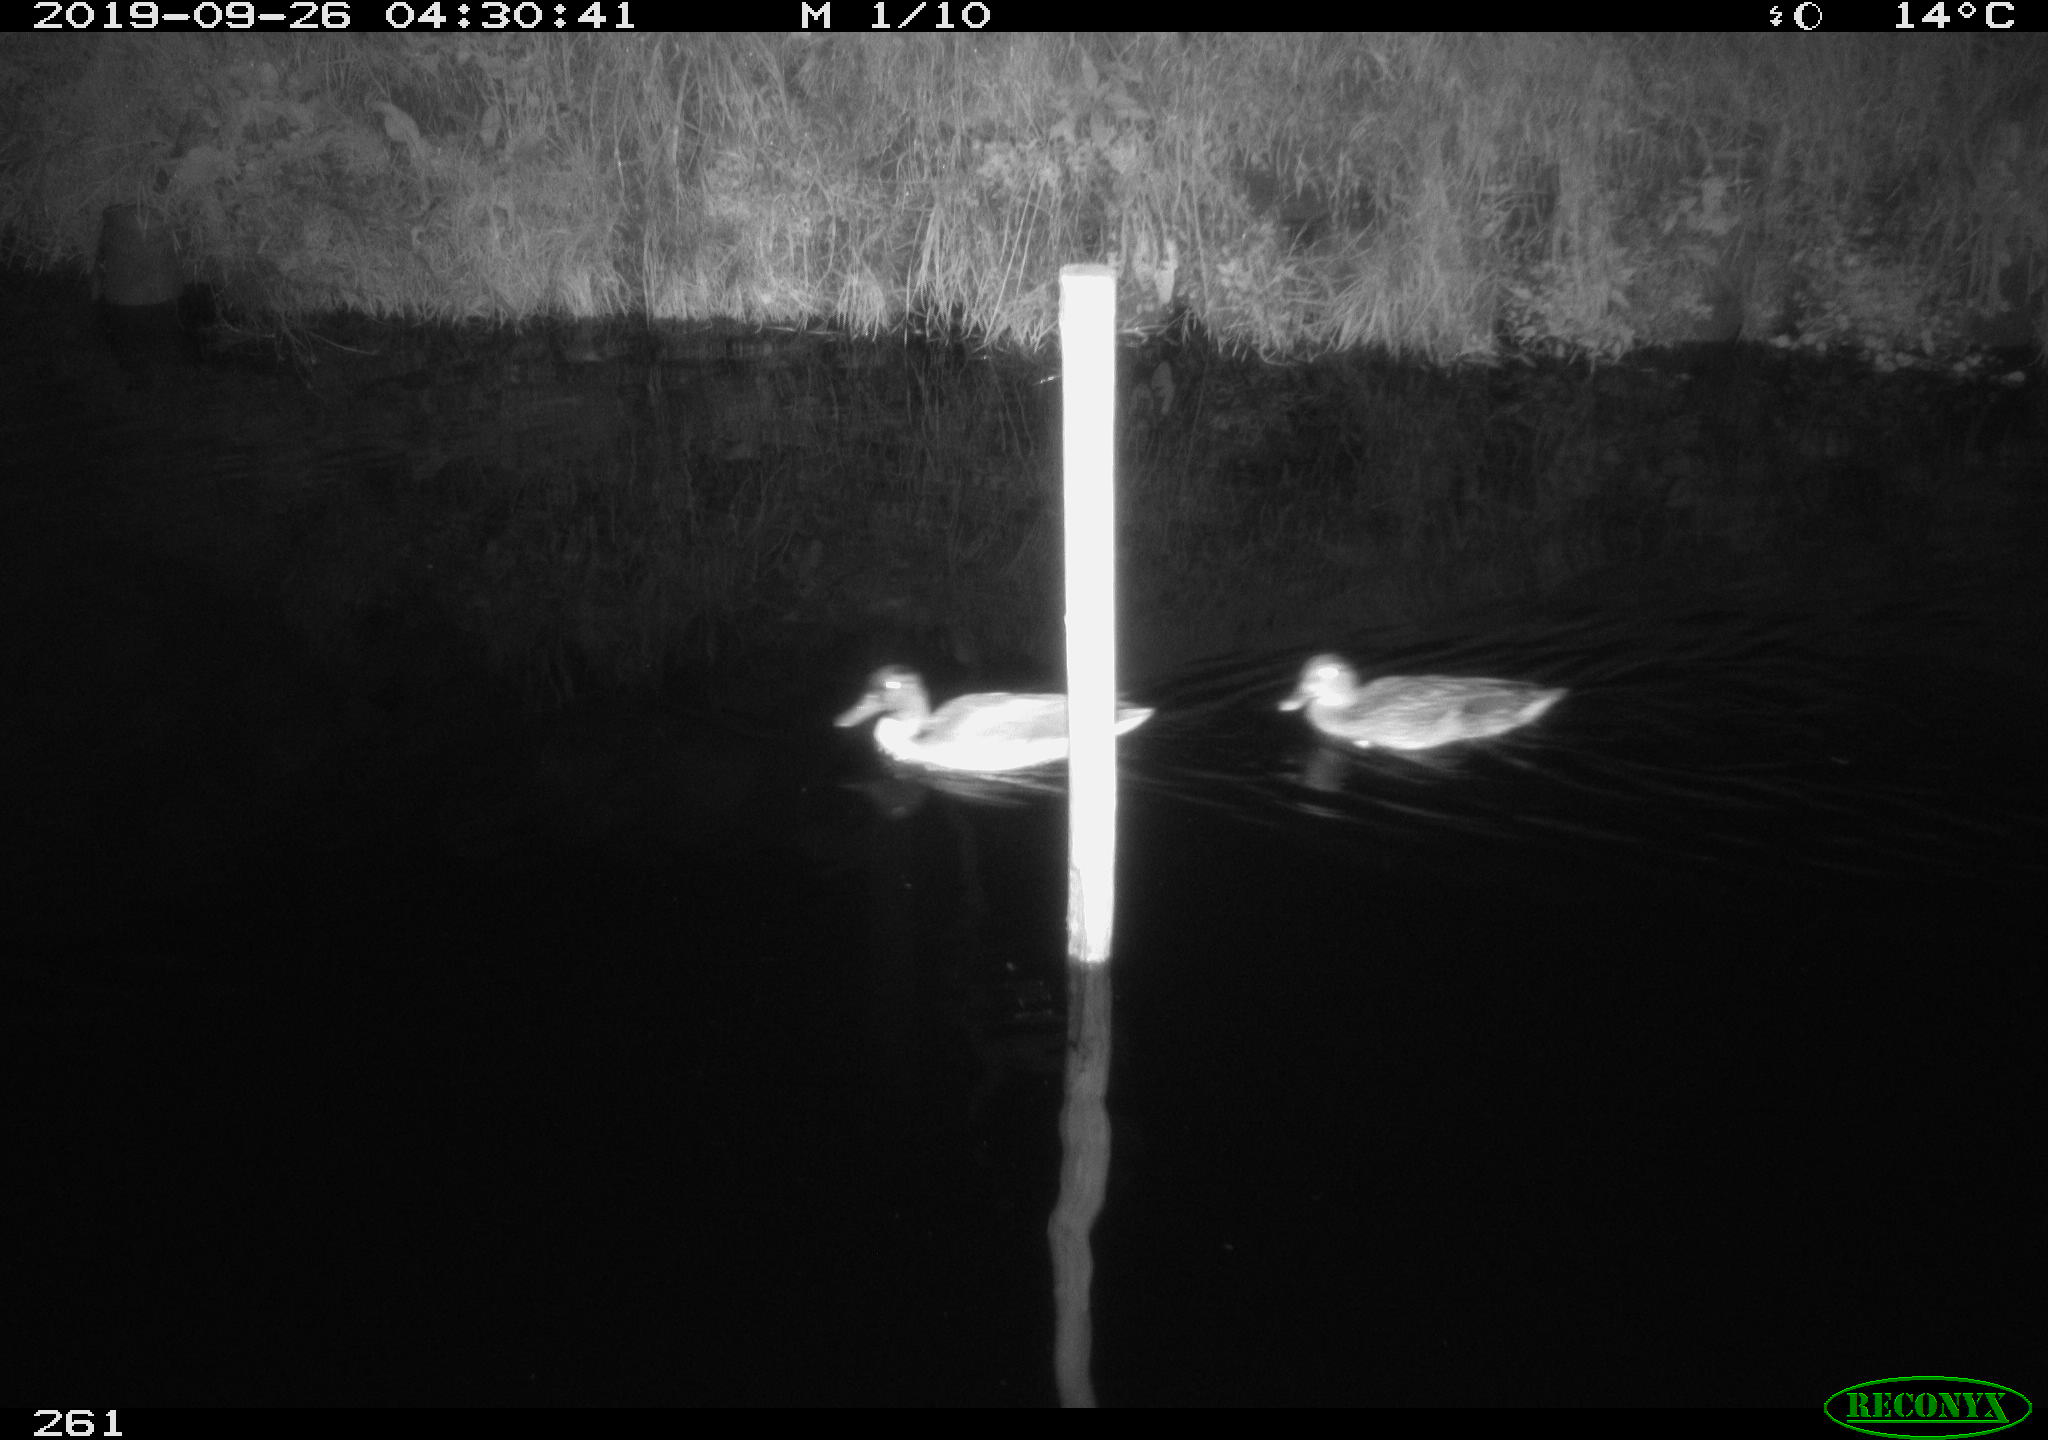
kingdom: Animalia
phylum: Chordata
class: Aves
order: Anseriformes
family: Anatidae
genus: Anas
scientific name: Anas platyrhynchos
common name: Mallard
